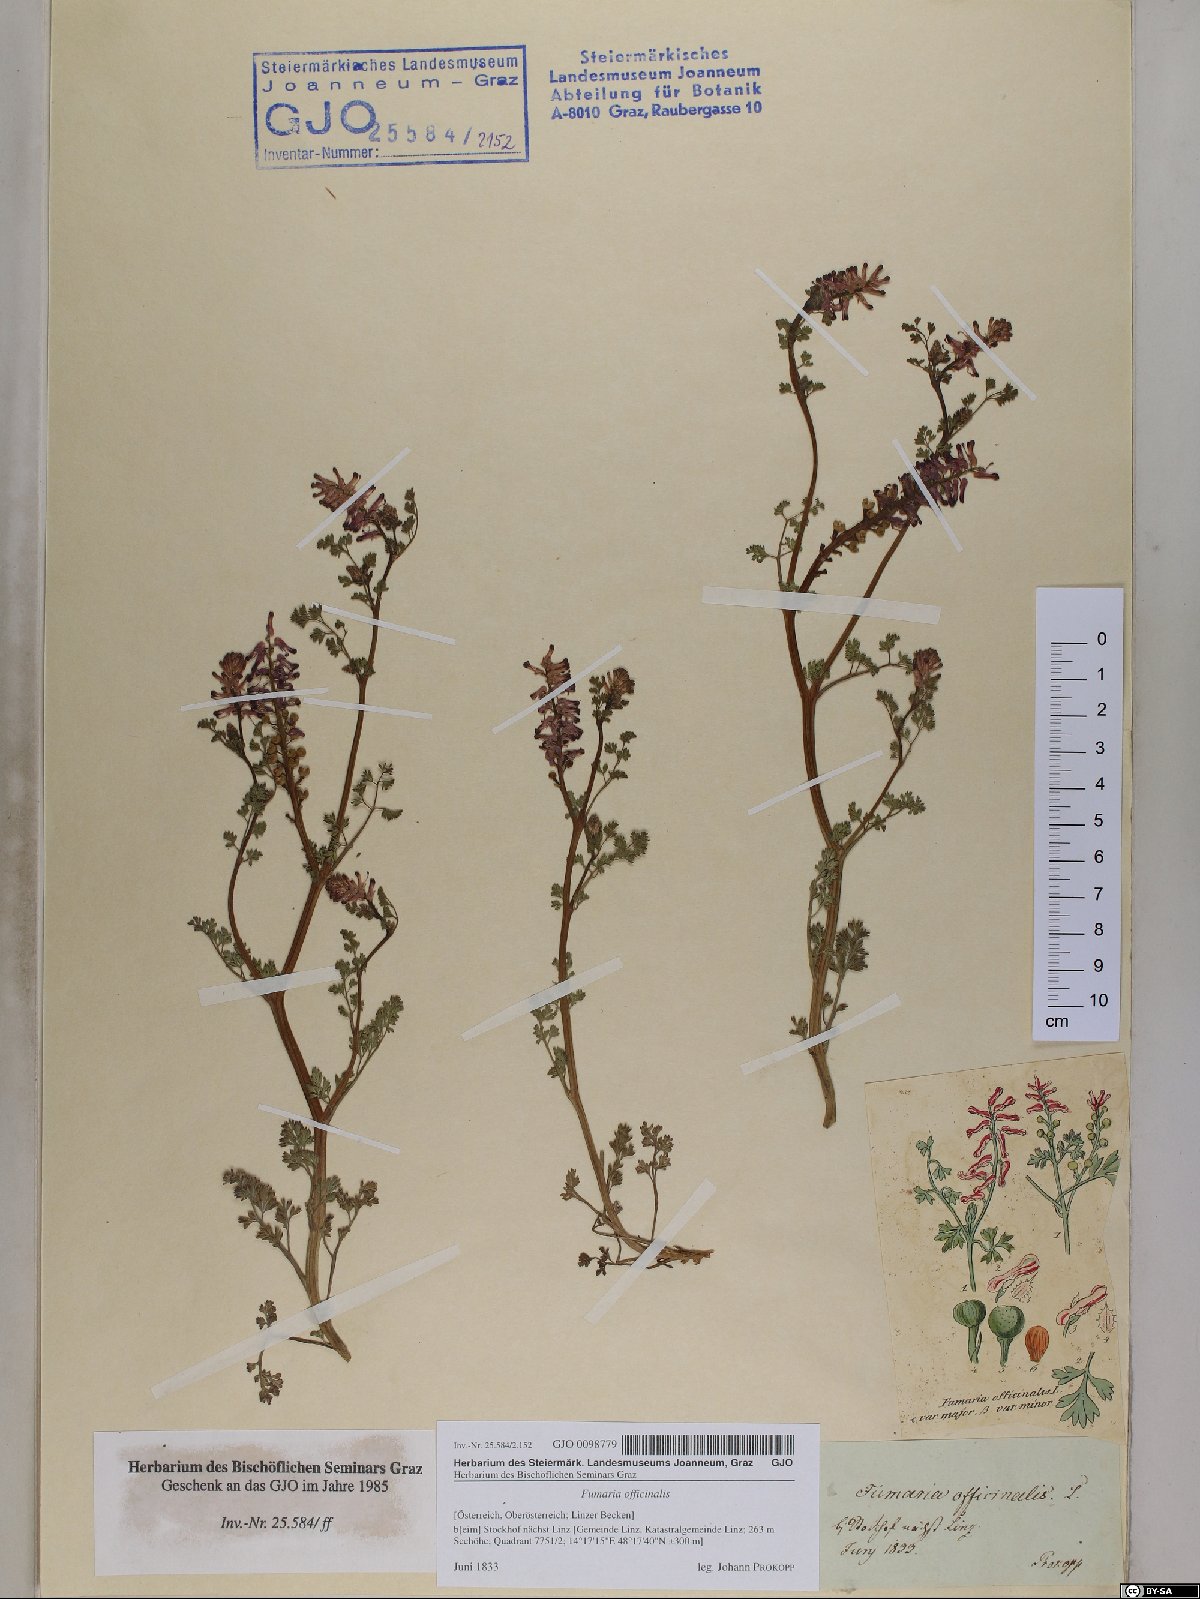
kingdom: Plantae
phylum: Tracheophyta
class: Magnoliopsida
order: Ranunculales
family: Papaveraceae
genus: Fumaria
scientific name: Fumaria officinalis
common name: Common fumitory
